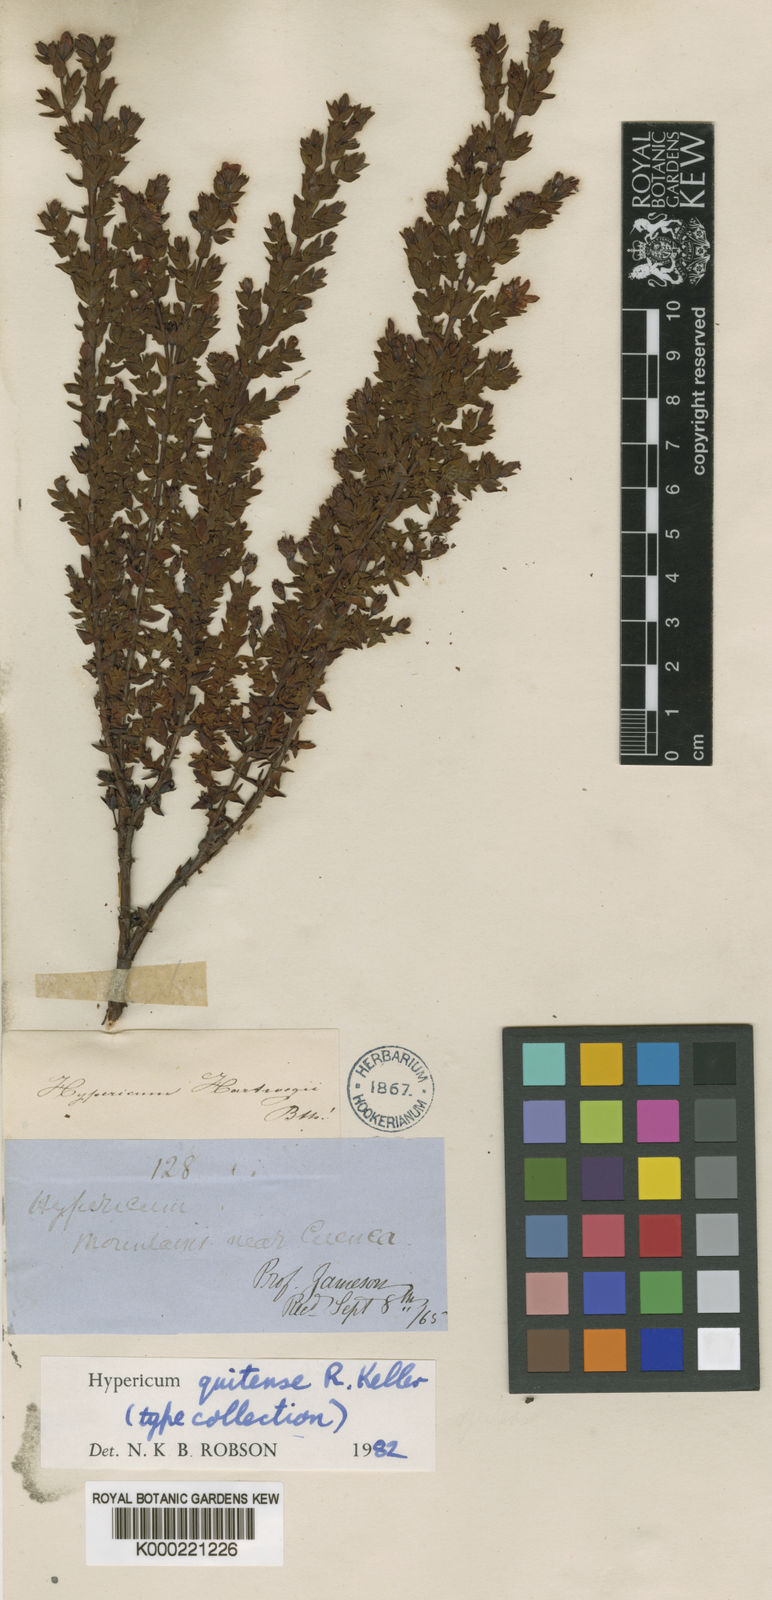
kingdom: Plantae
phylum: Tracheophyta
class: Magnoliopsida
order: Malpighiales
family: Hypericaceae
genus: Hypericum
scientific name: Hypericum quitense
